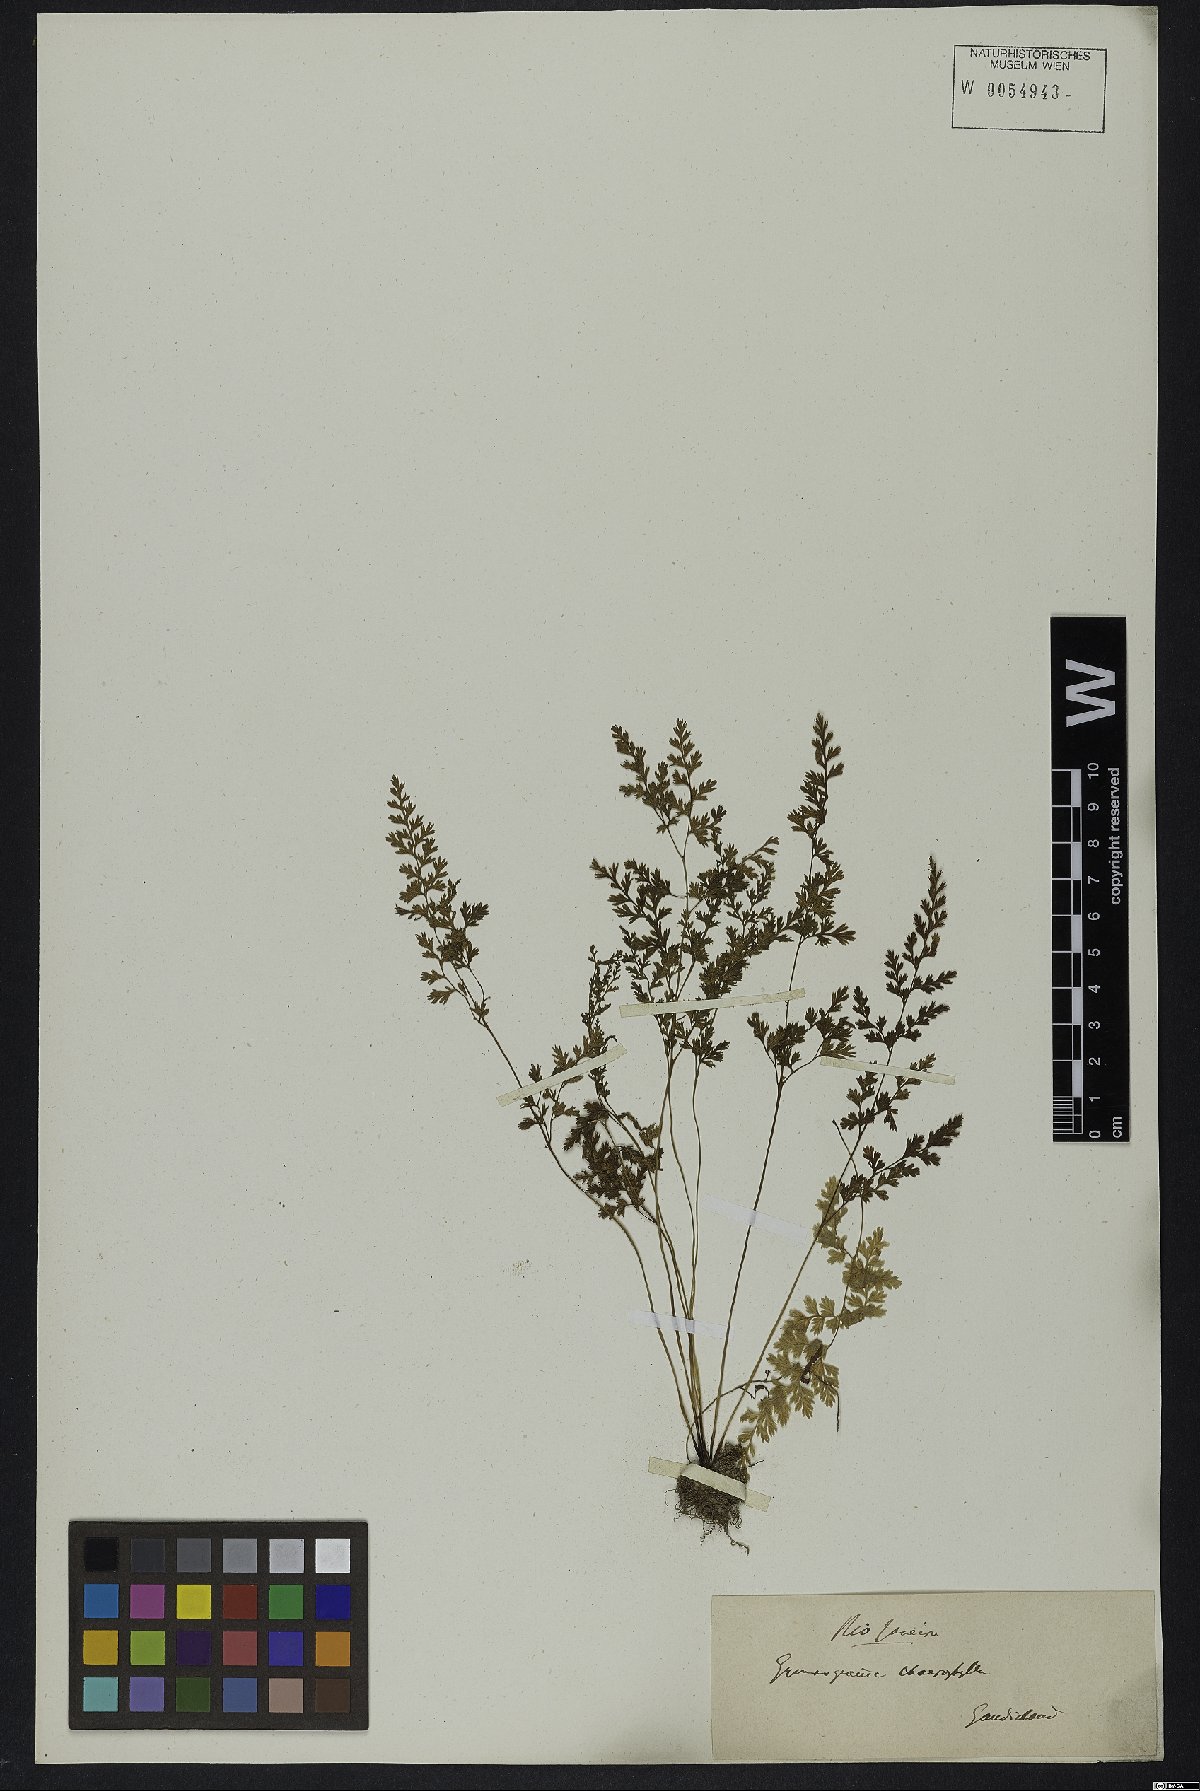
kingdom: Plantae
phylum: Tracheophyta
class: Polypodiopsida
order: Polypodiales
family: Pteridaceae
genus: Gastoniella
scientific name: Gastoniella chaerophylla
